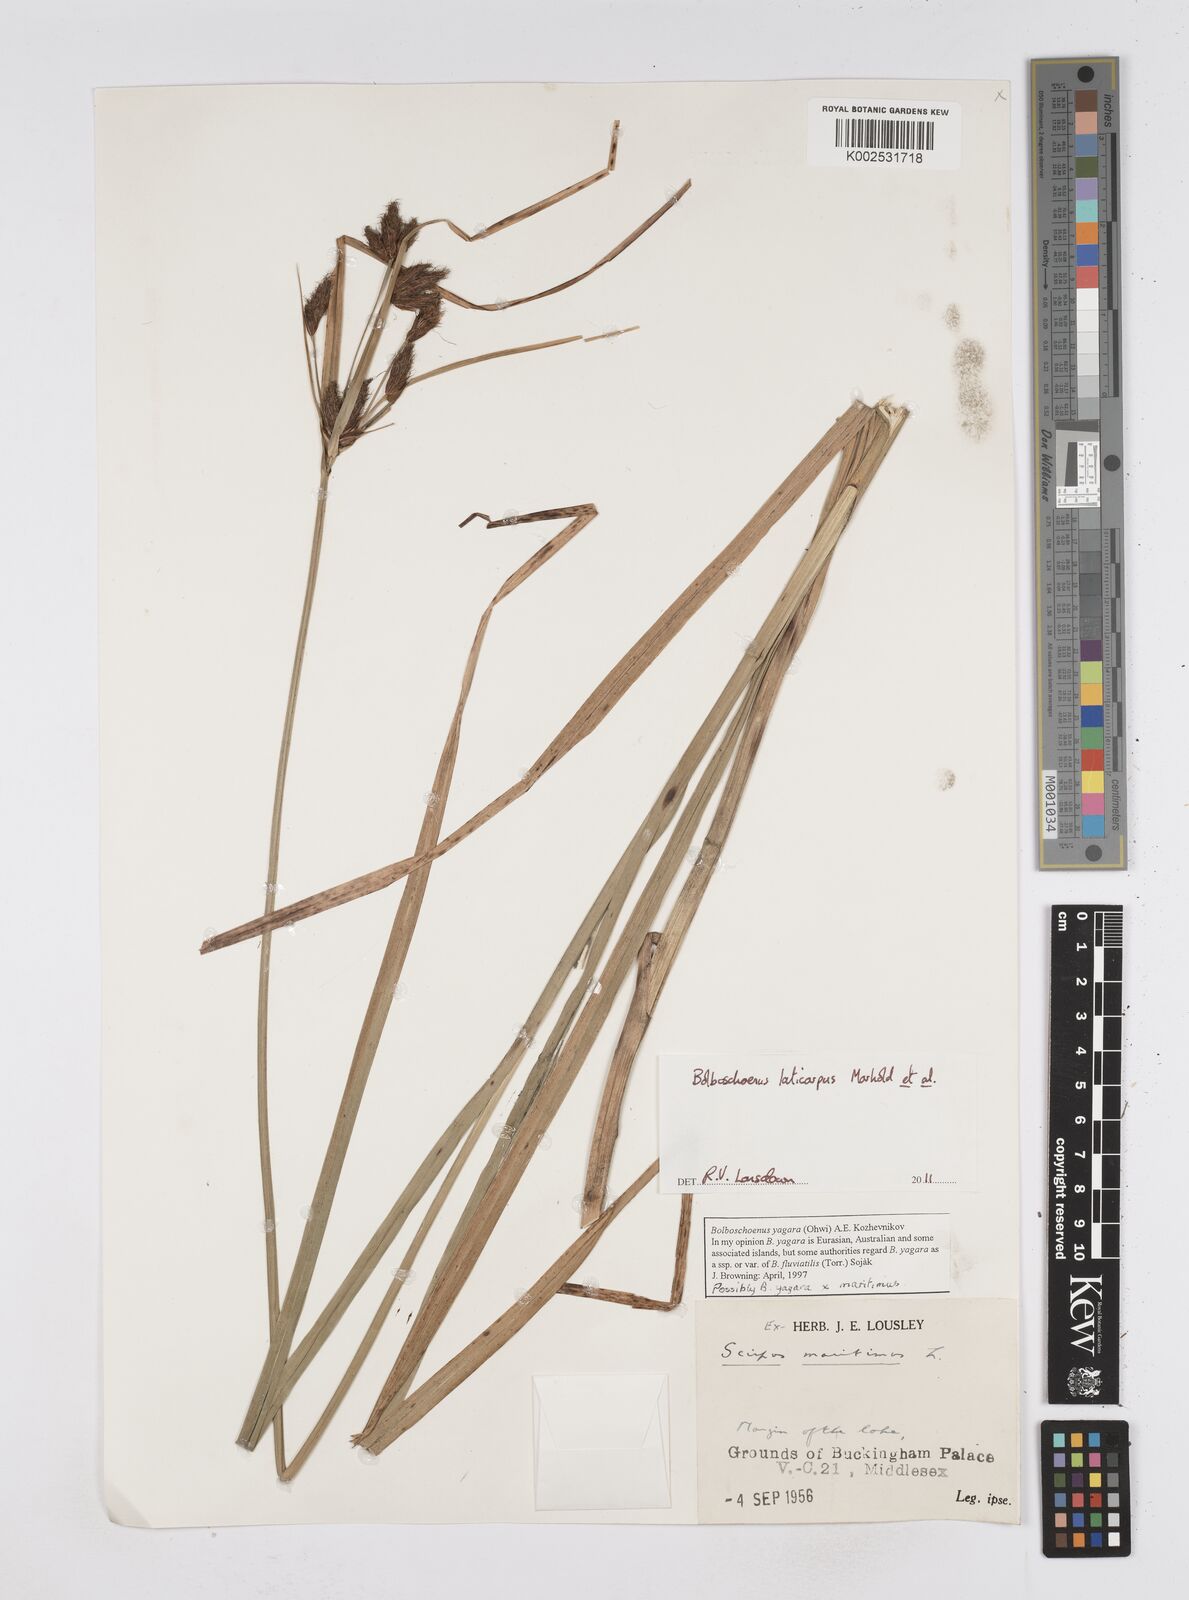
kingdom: Plantae
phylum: Tracheophyta
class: Liliopsida
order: Poales
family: Cyperaceae
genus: Bolboschoenus
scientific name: Bolboschoenus laticarpus
